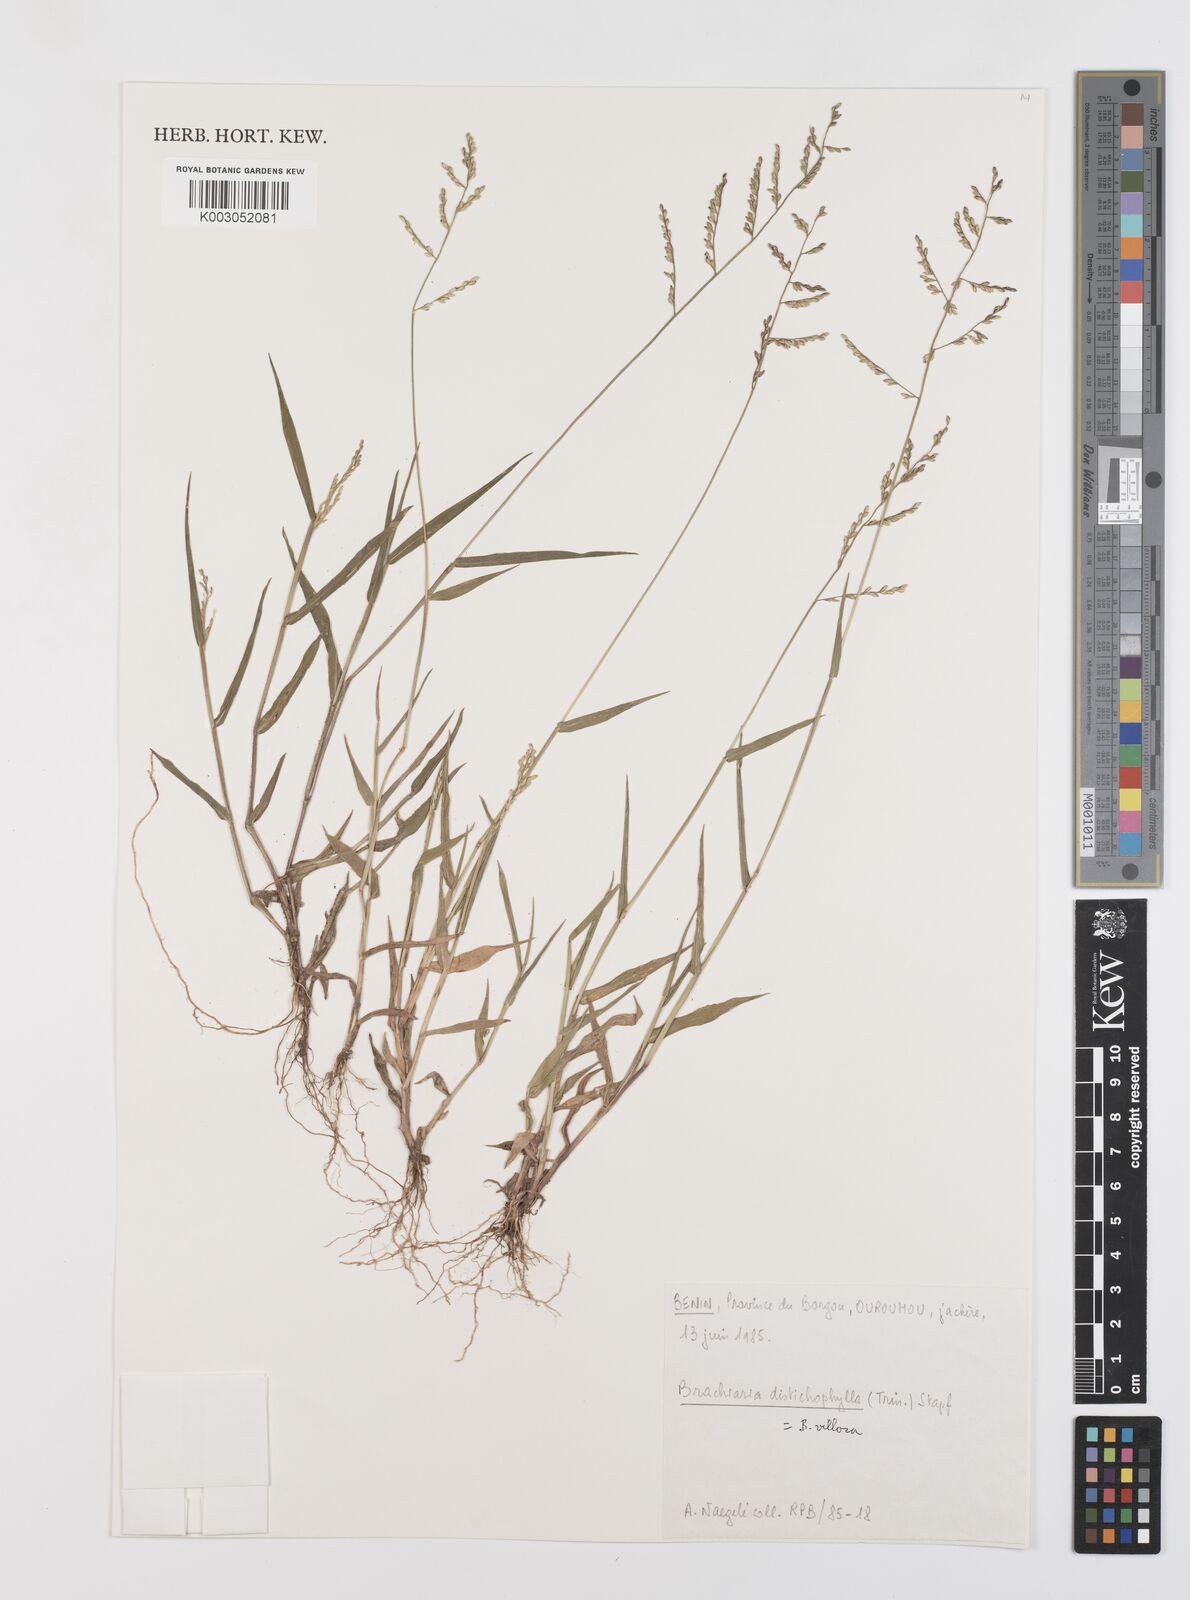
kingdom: Plantae
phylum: Tracheophyta
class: Liliopsida
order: Poales
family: Poaceae
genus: Urochloa
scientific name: Urochloa villosa
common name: Hairy signalgrass
